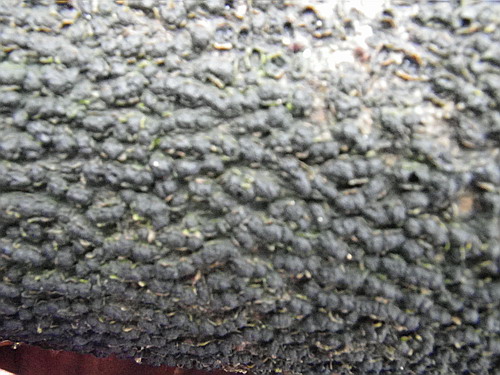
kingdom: Fungi
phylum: Ascomycota
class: Sordariomycetes
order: Xylariales
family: Melogrammataceae
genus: Melogramma
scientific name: Melogramma spiniferum
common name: bøgefod-kulhals
